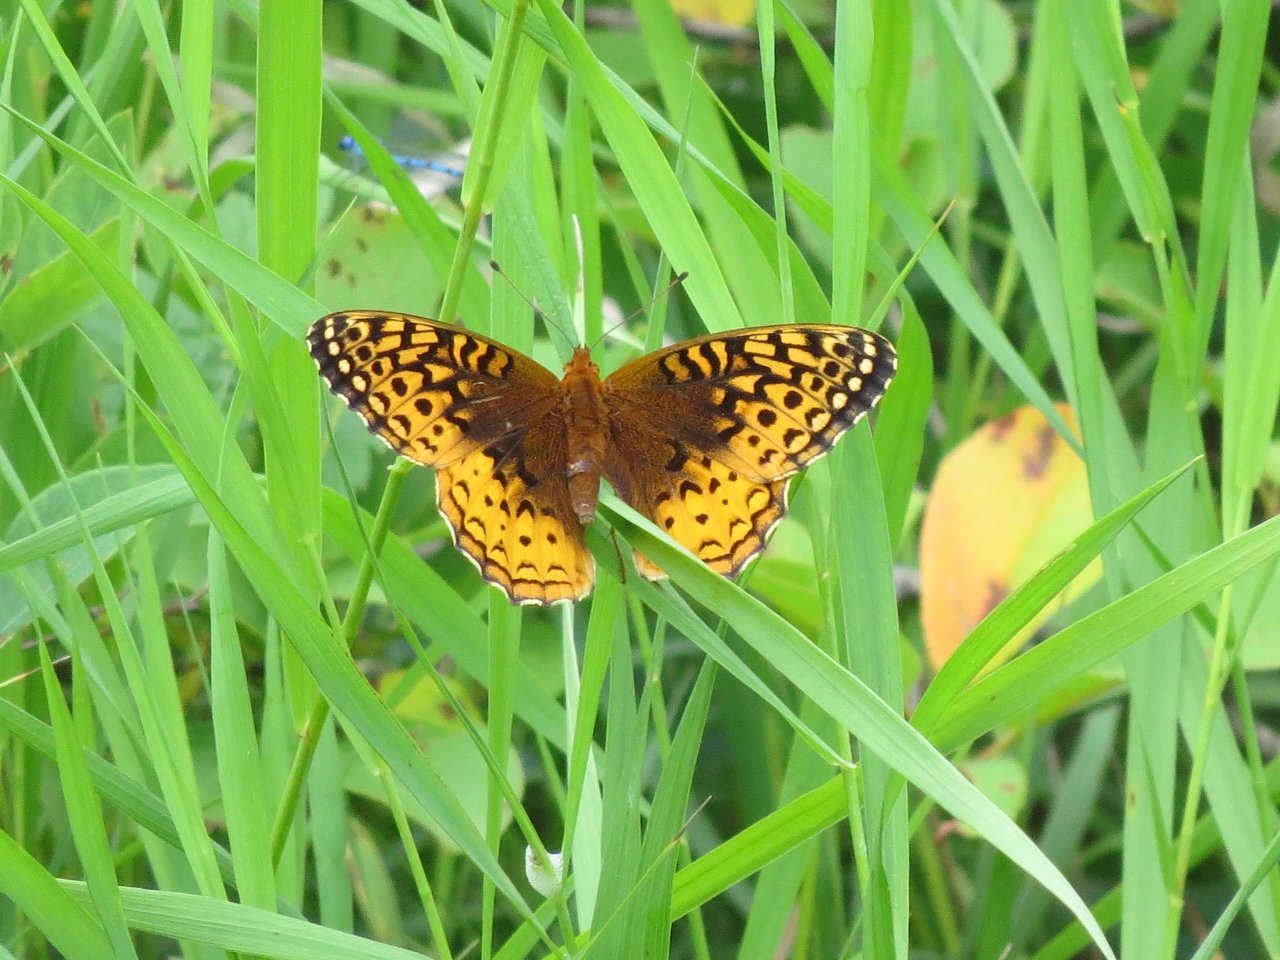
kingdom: Animalia
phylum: Arthropoda
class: Insecta
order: Lepidoptera
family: Nymphalidae
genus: Speyeria
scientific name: Speyeria cybele
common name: Great Spangled Fritillary
